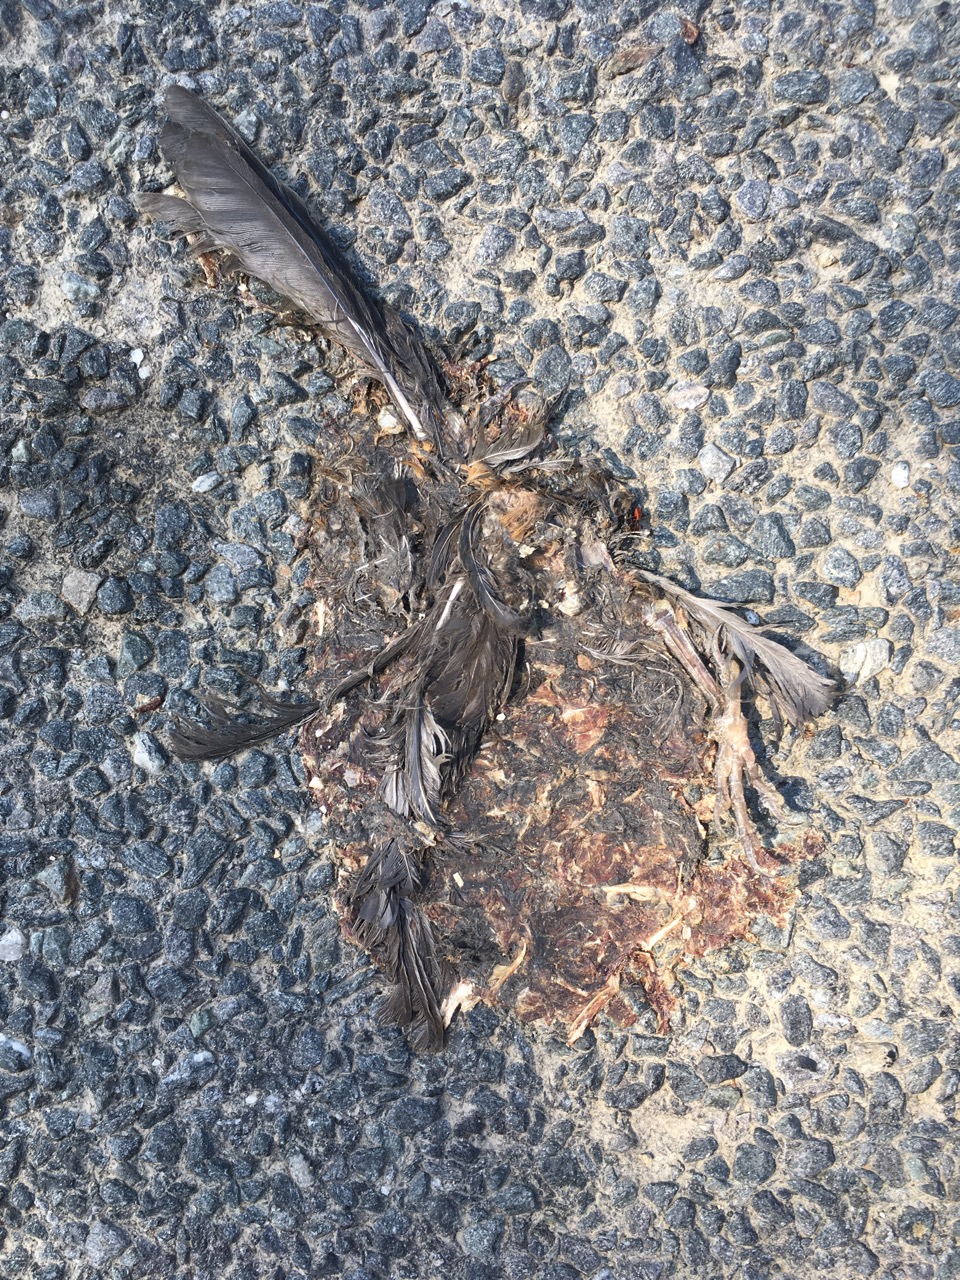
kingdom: Animalia
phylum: Chordata
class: Aves
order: Passeriformes
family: Turdidae
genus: Turdus
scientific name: Turdus merula
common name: Common blackbird
